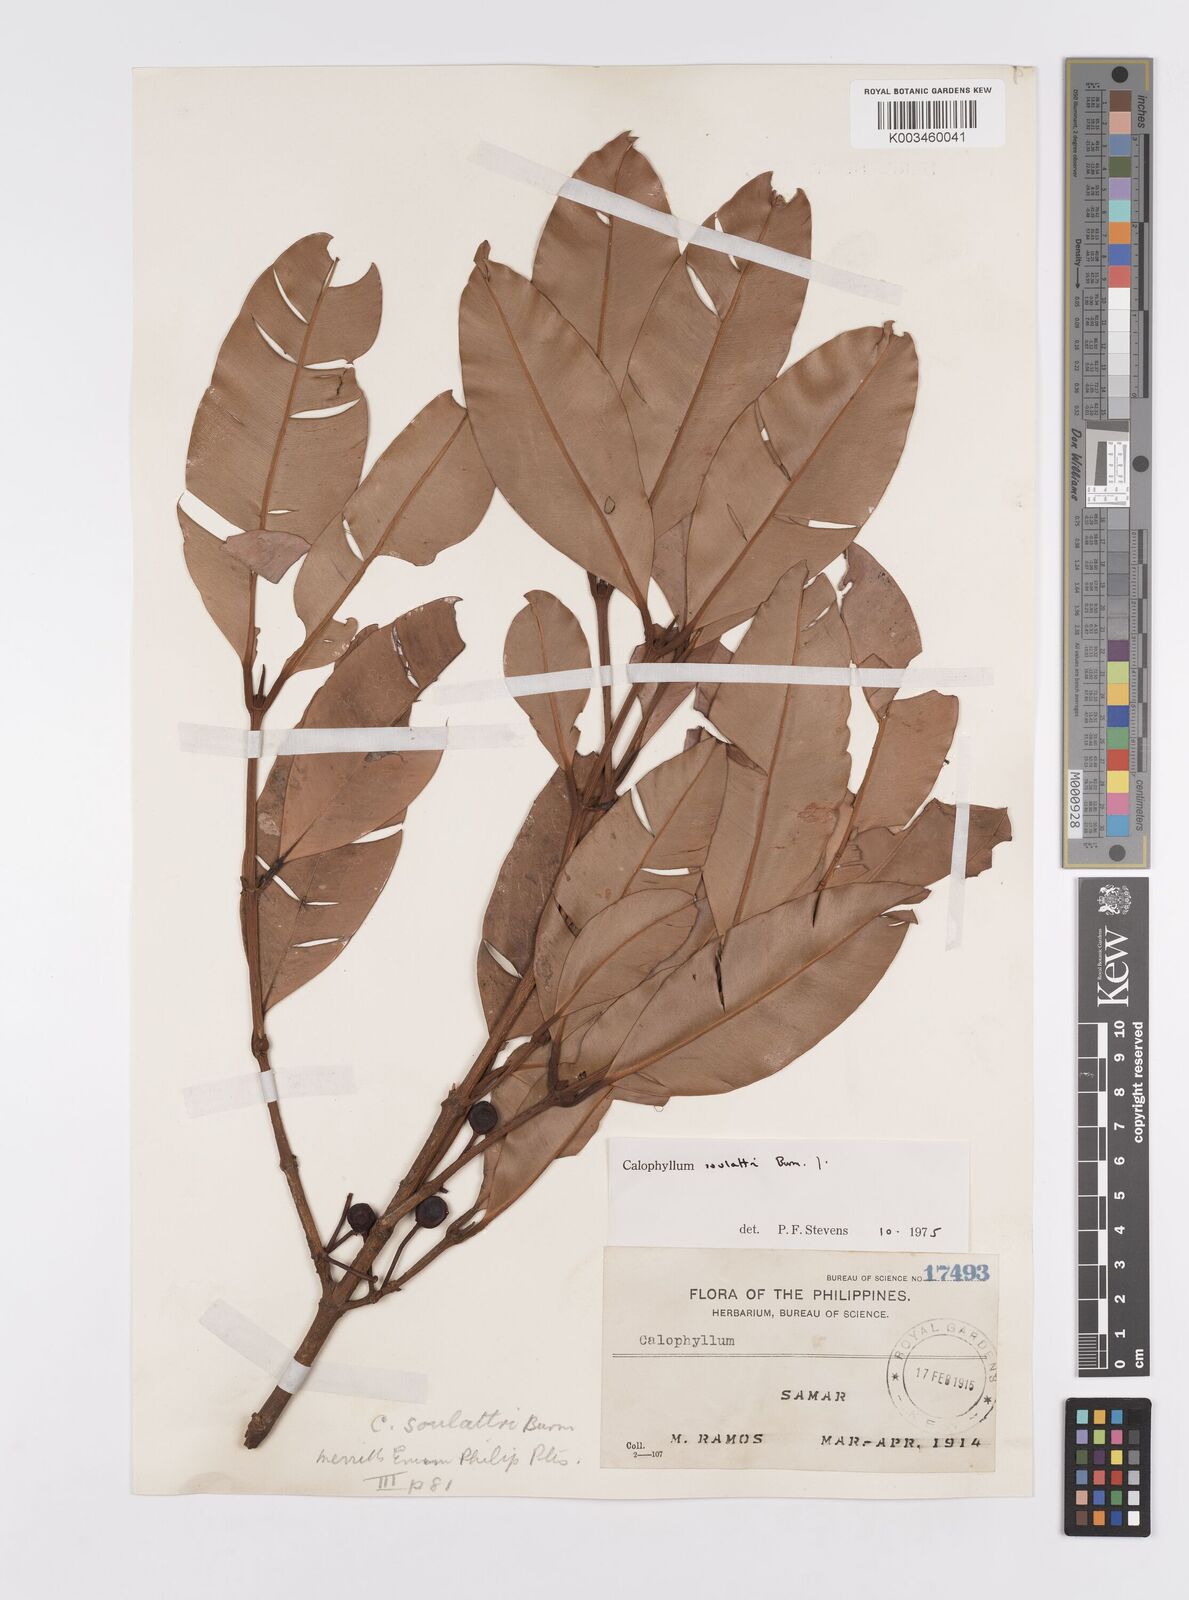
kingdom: Plantae
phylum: Tracheophyta
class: Magnoliopsida
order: Malpighiales
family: Calophyllaceae
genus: Calophyllum
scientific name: Calophyllum soulattri
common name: Bitangoor boonot
